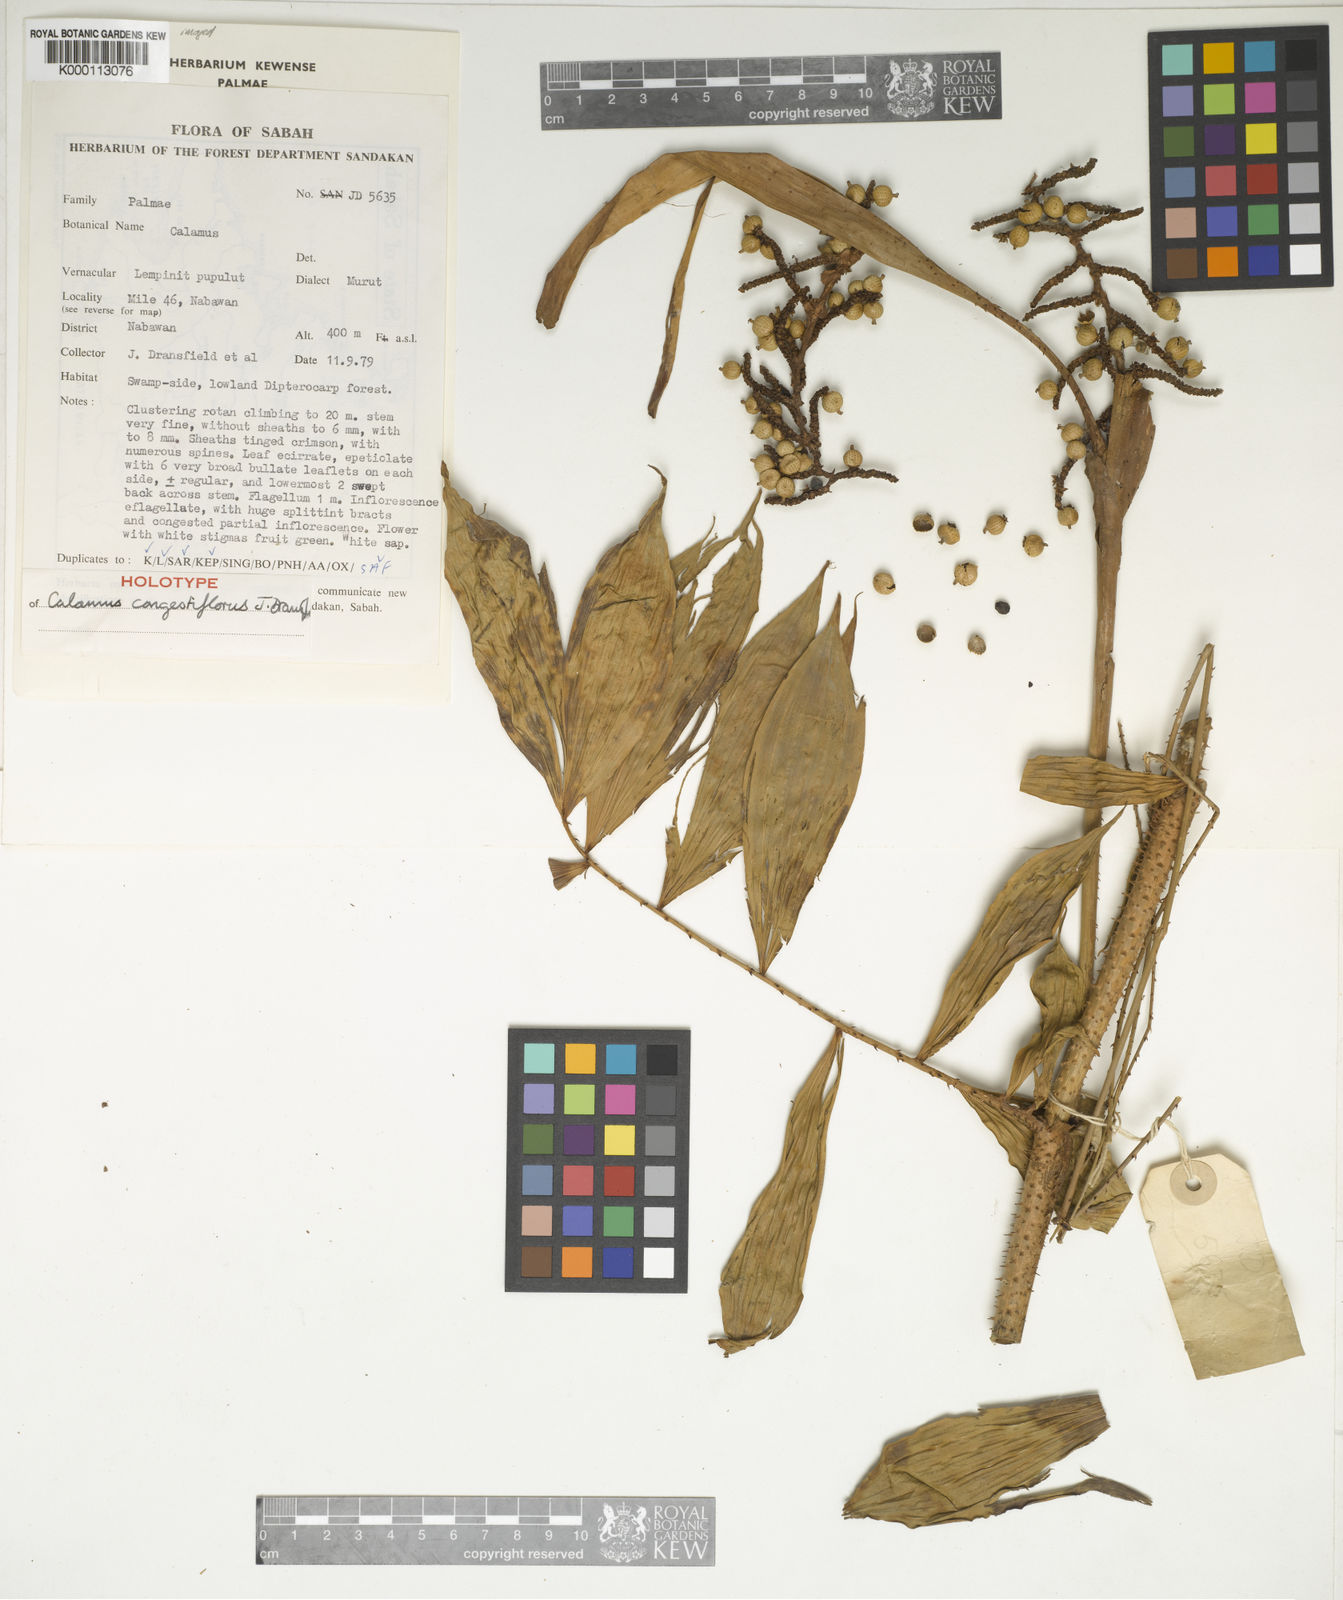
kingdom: Plantae
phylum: Tracheophyta
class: Liliopsida
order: Arecales
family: Arecaceae
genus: Calamus
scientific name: Calamus javensis
